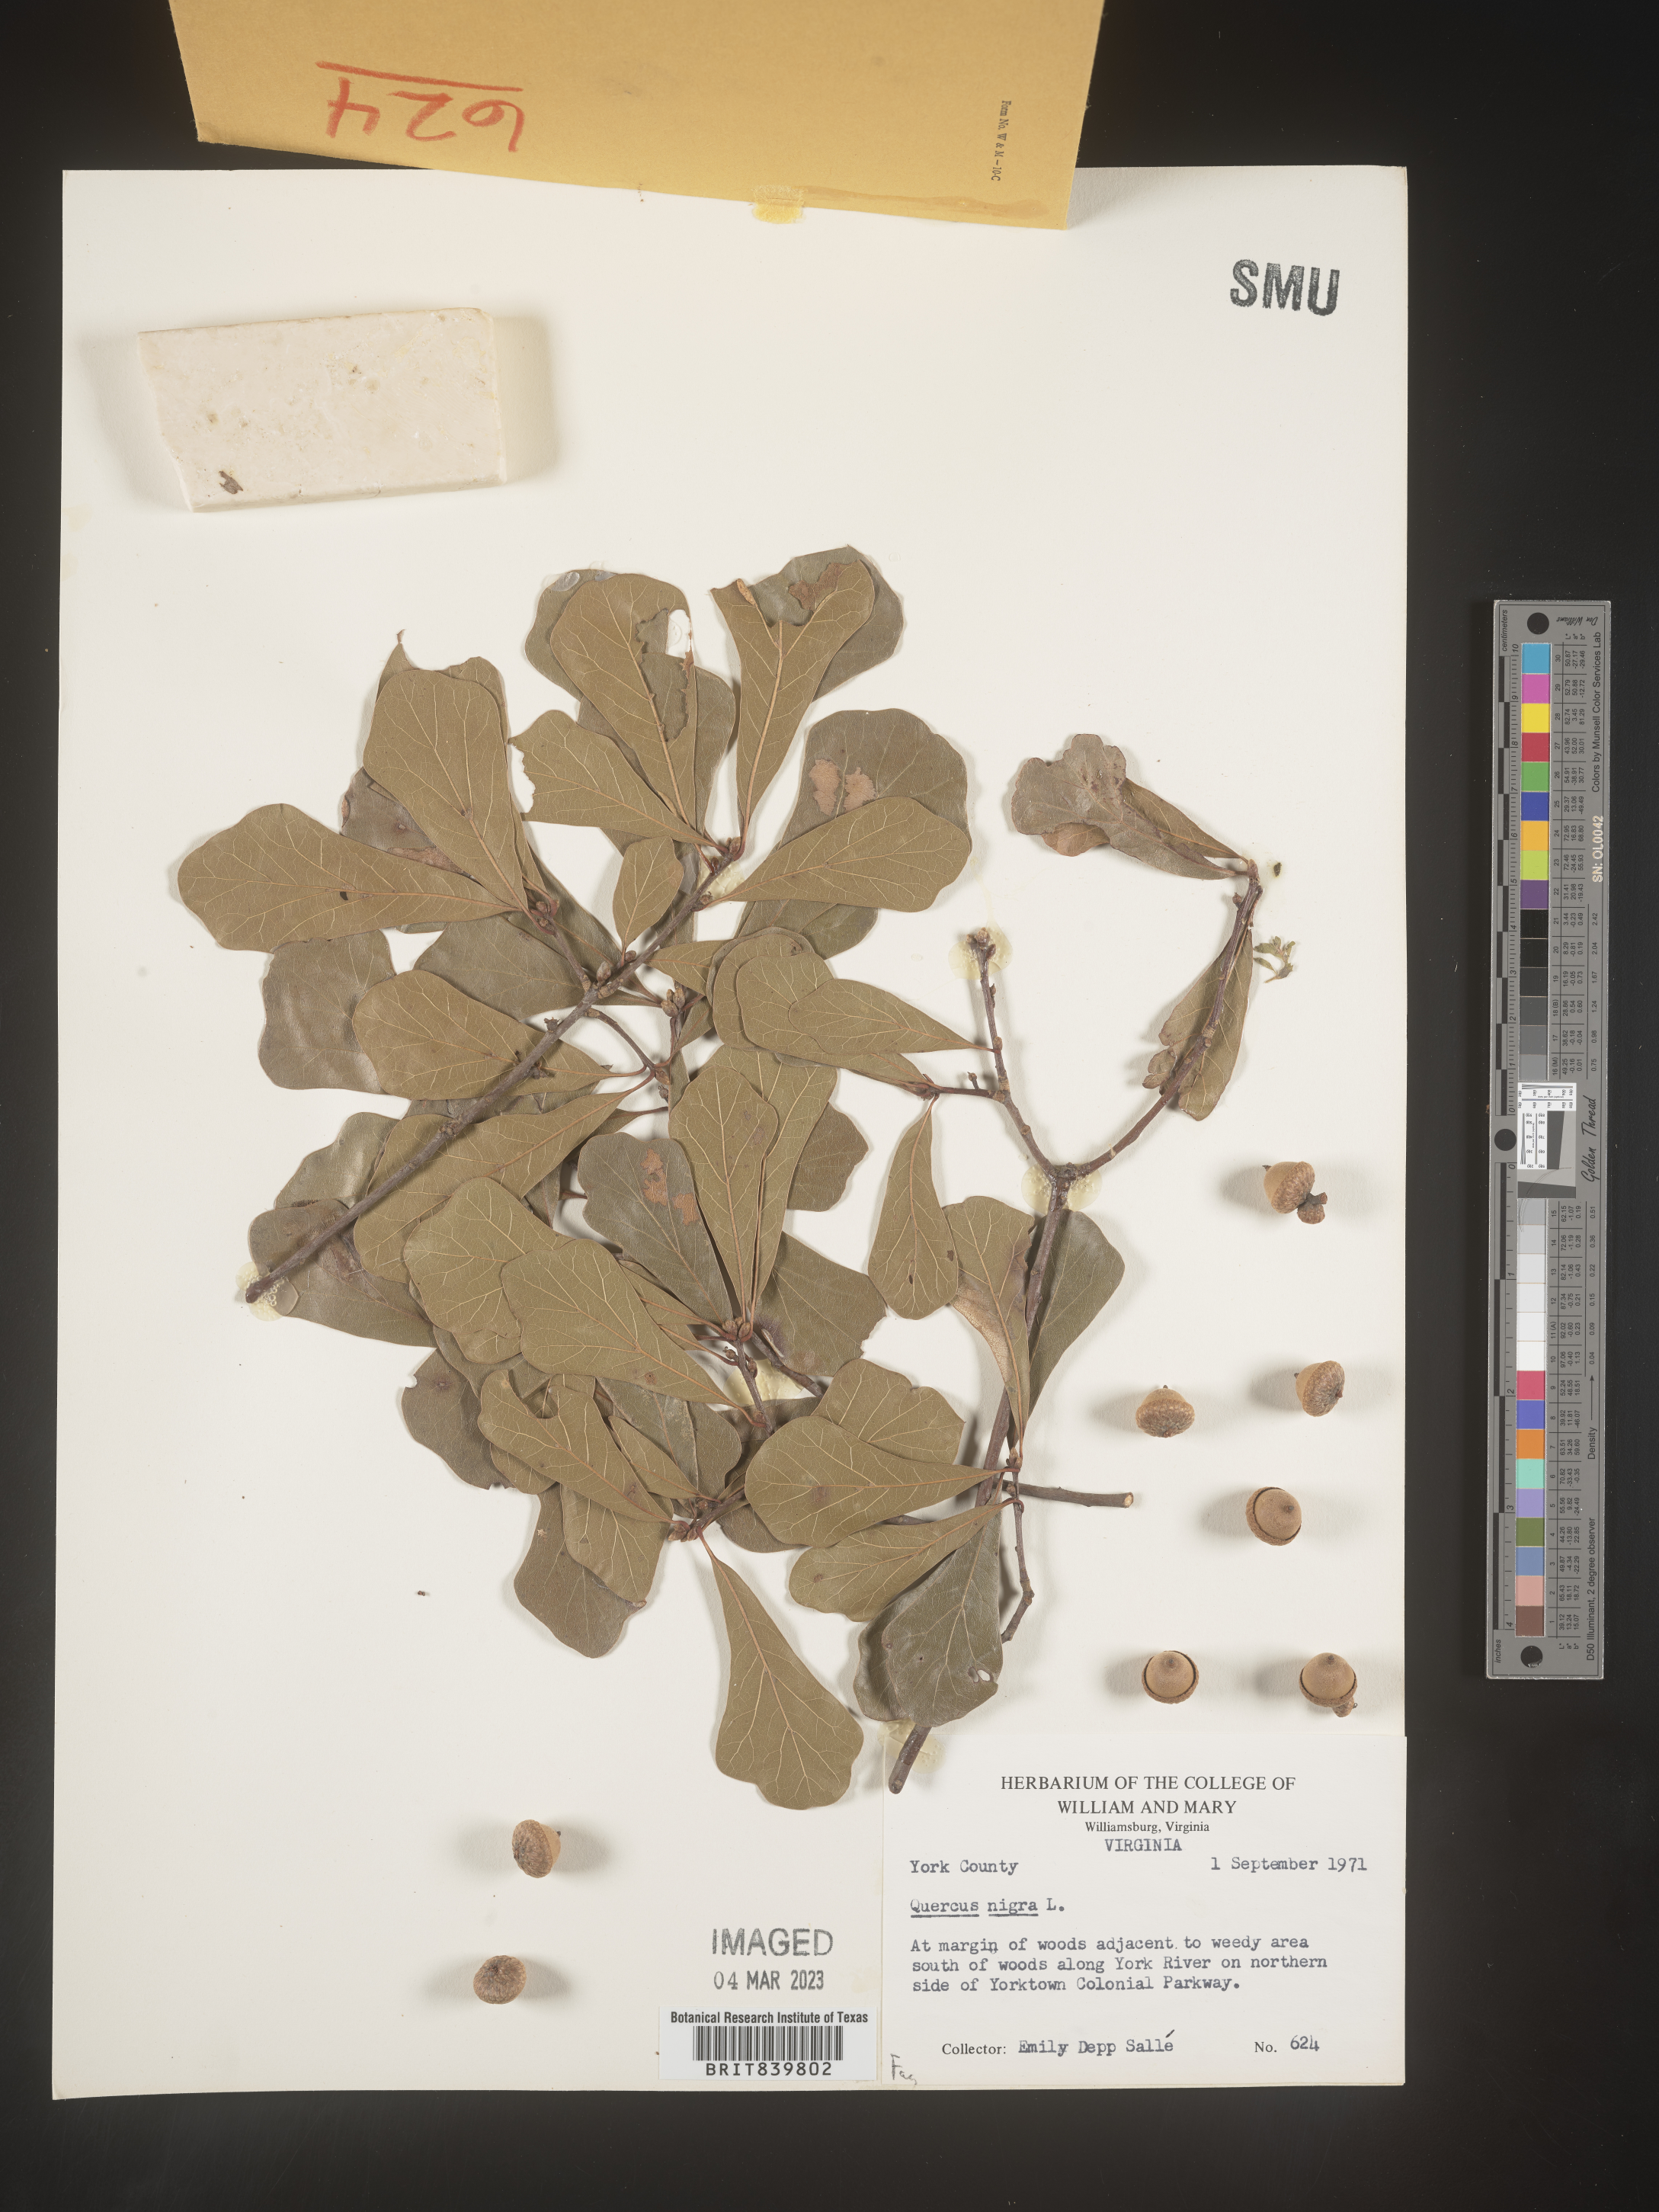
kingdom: Plantae
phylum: Tracheophyta
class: Magnoliopsida
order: Fagales
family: Fagaceae
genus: Quercus
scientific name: Quercus nigra
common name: Water oak
